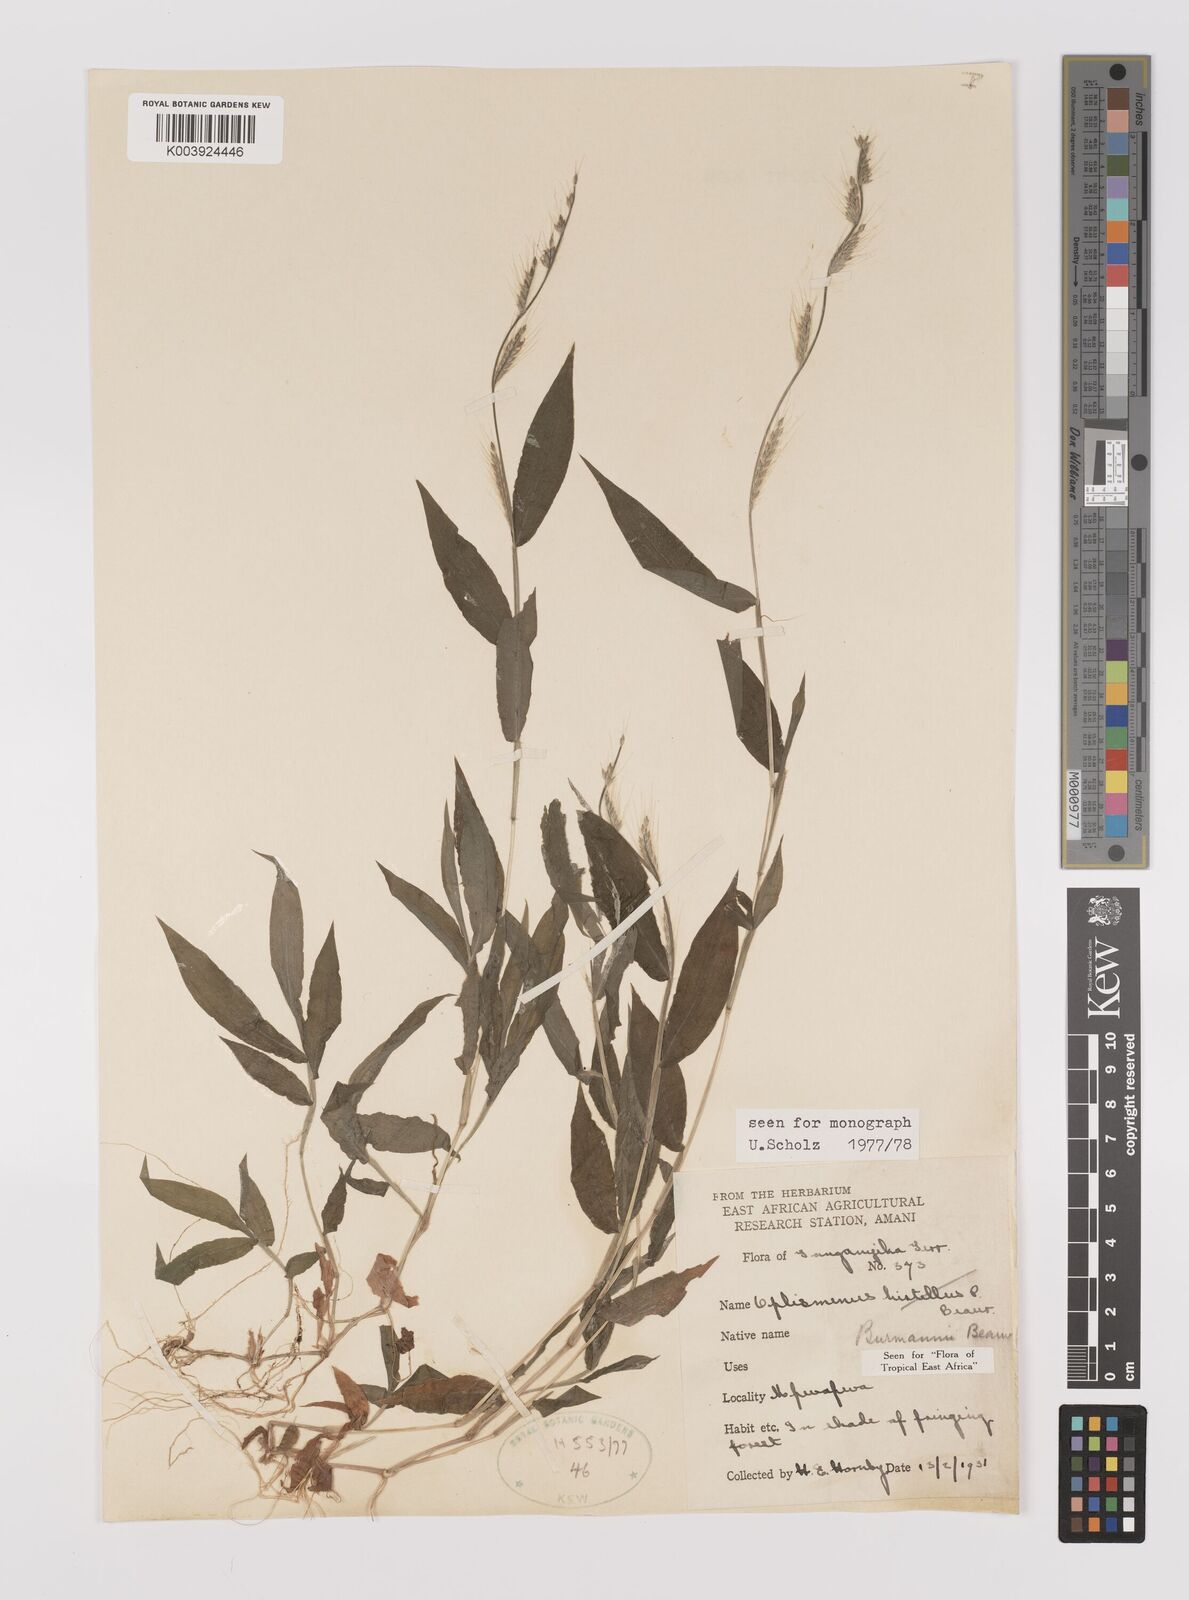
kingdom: Plantae
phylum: Tracheophyta
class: Liliopsida
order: Poales
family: Poaceae
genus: Oplismenus
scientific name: Oplismenus burmanni
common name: Burmann's basketgrass
